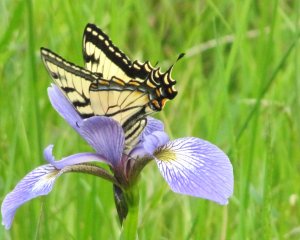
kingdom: Animalia
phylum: Arthropoda
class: Insecta
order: Lepidoptera
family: Papilionidae
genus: Pterourus
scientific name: Pterourus canadensis
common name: Canadian Tiger Swallowtail
